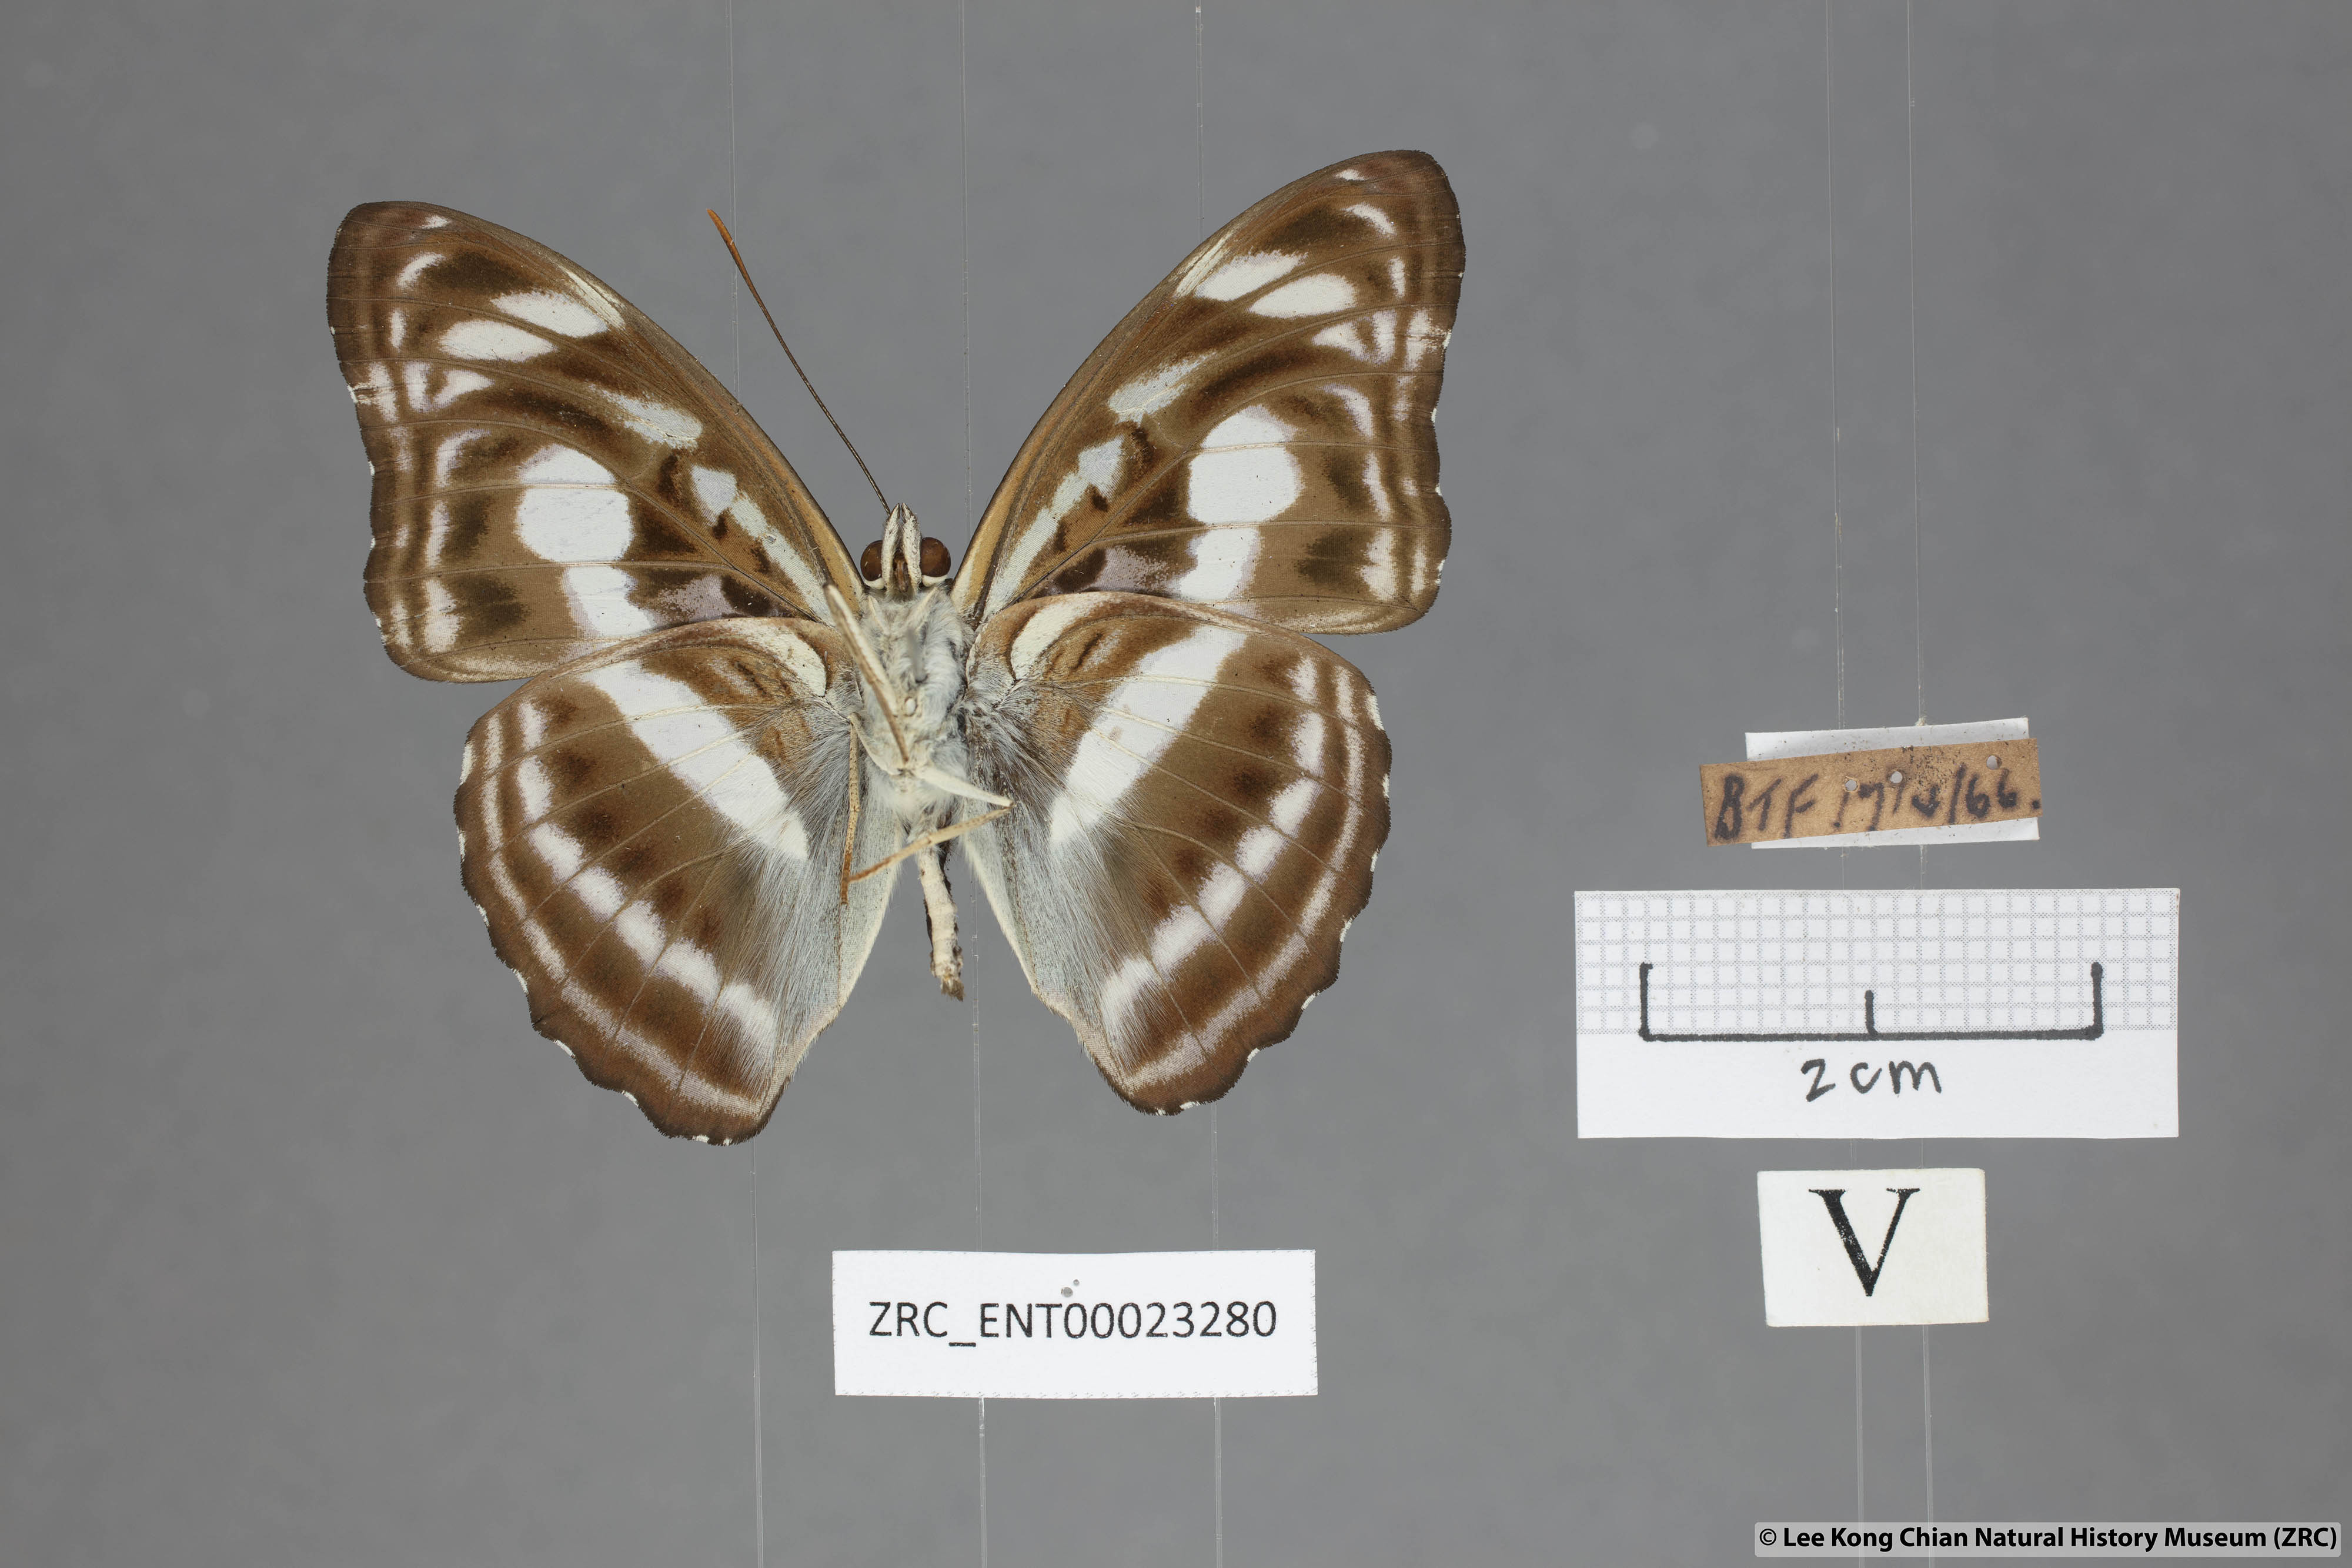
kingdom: Animalia
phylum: Arthropoda
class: Insecta
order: Lepidoptera
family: Nymphalidae
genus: Parathyma
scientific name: Parathyma selenophora
